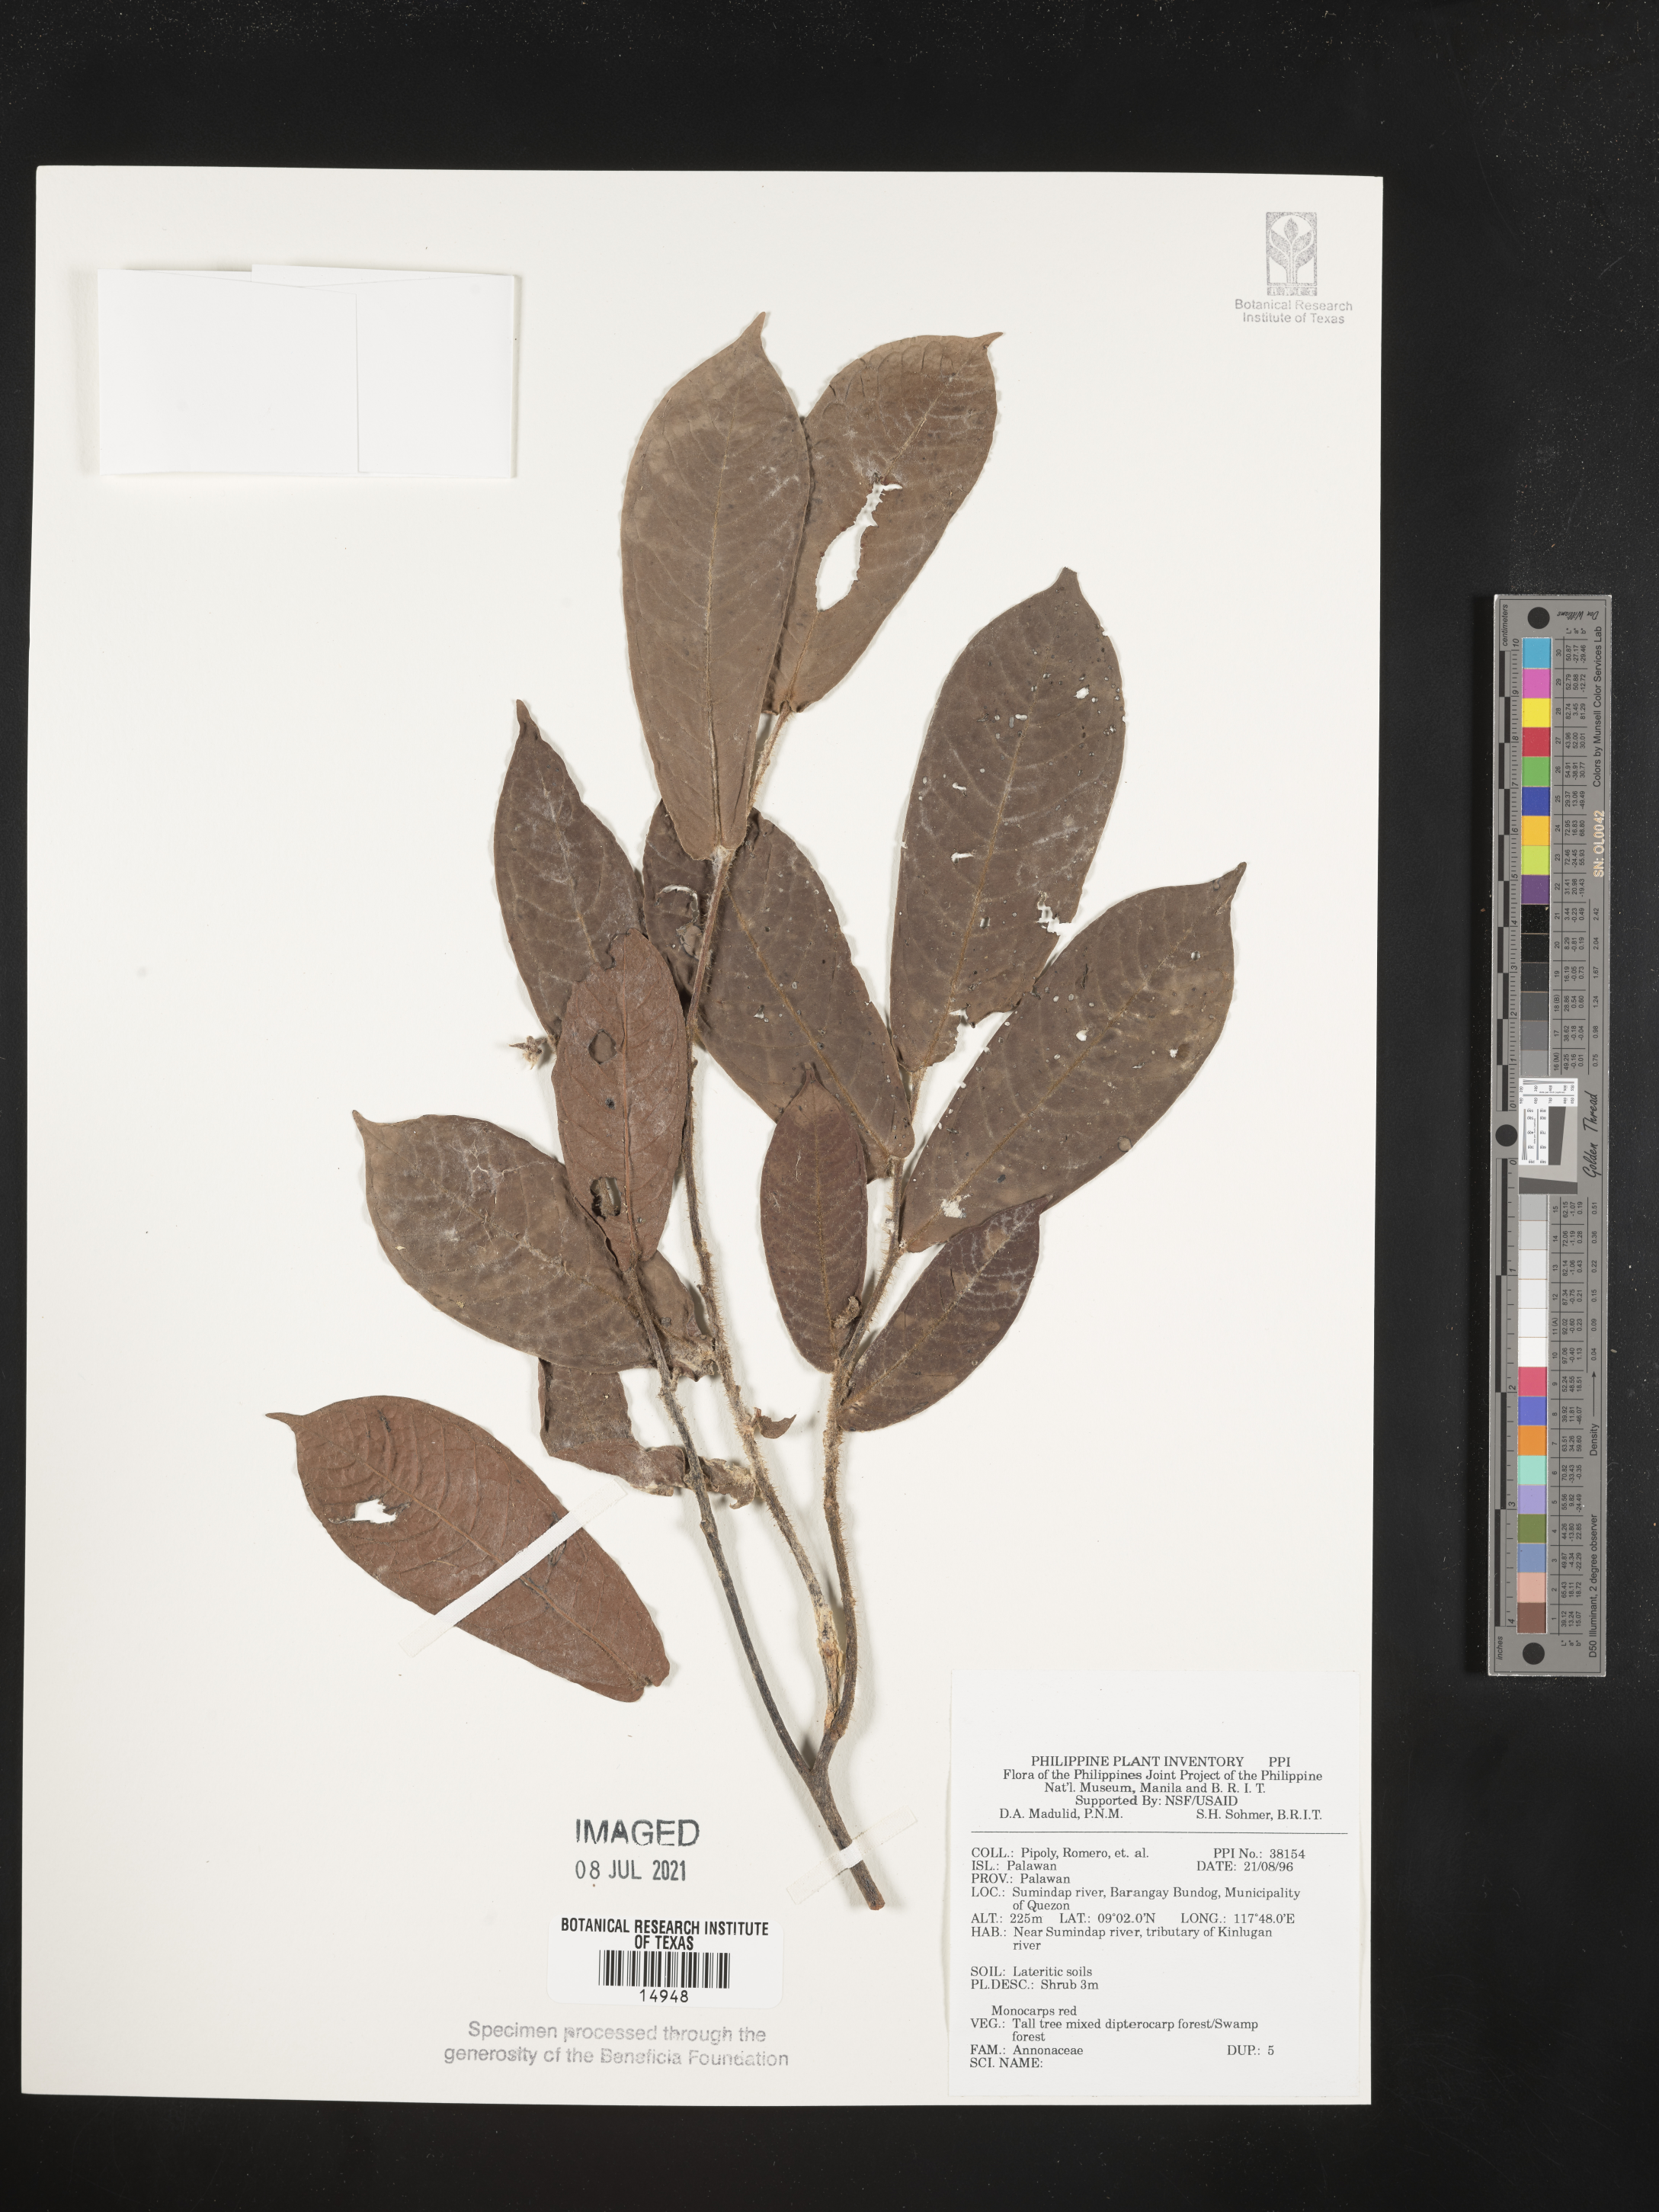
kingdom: Plantae
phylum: Tracheophyta
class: Magnoliopsida
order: Magnoliales
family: Annonaceae
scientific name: Annonaceae
